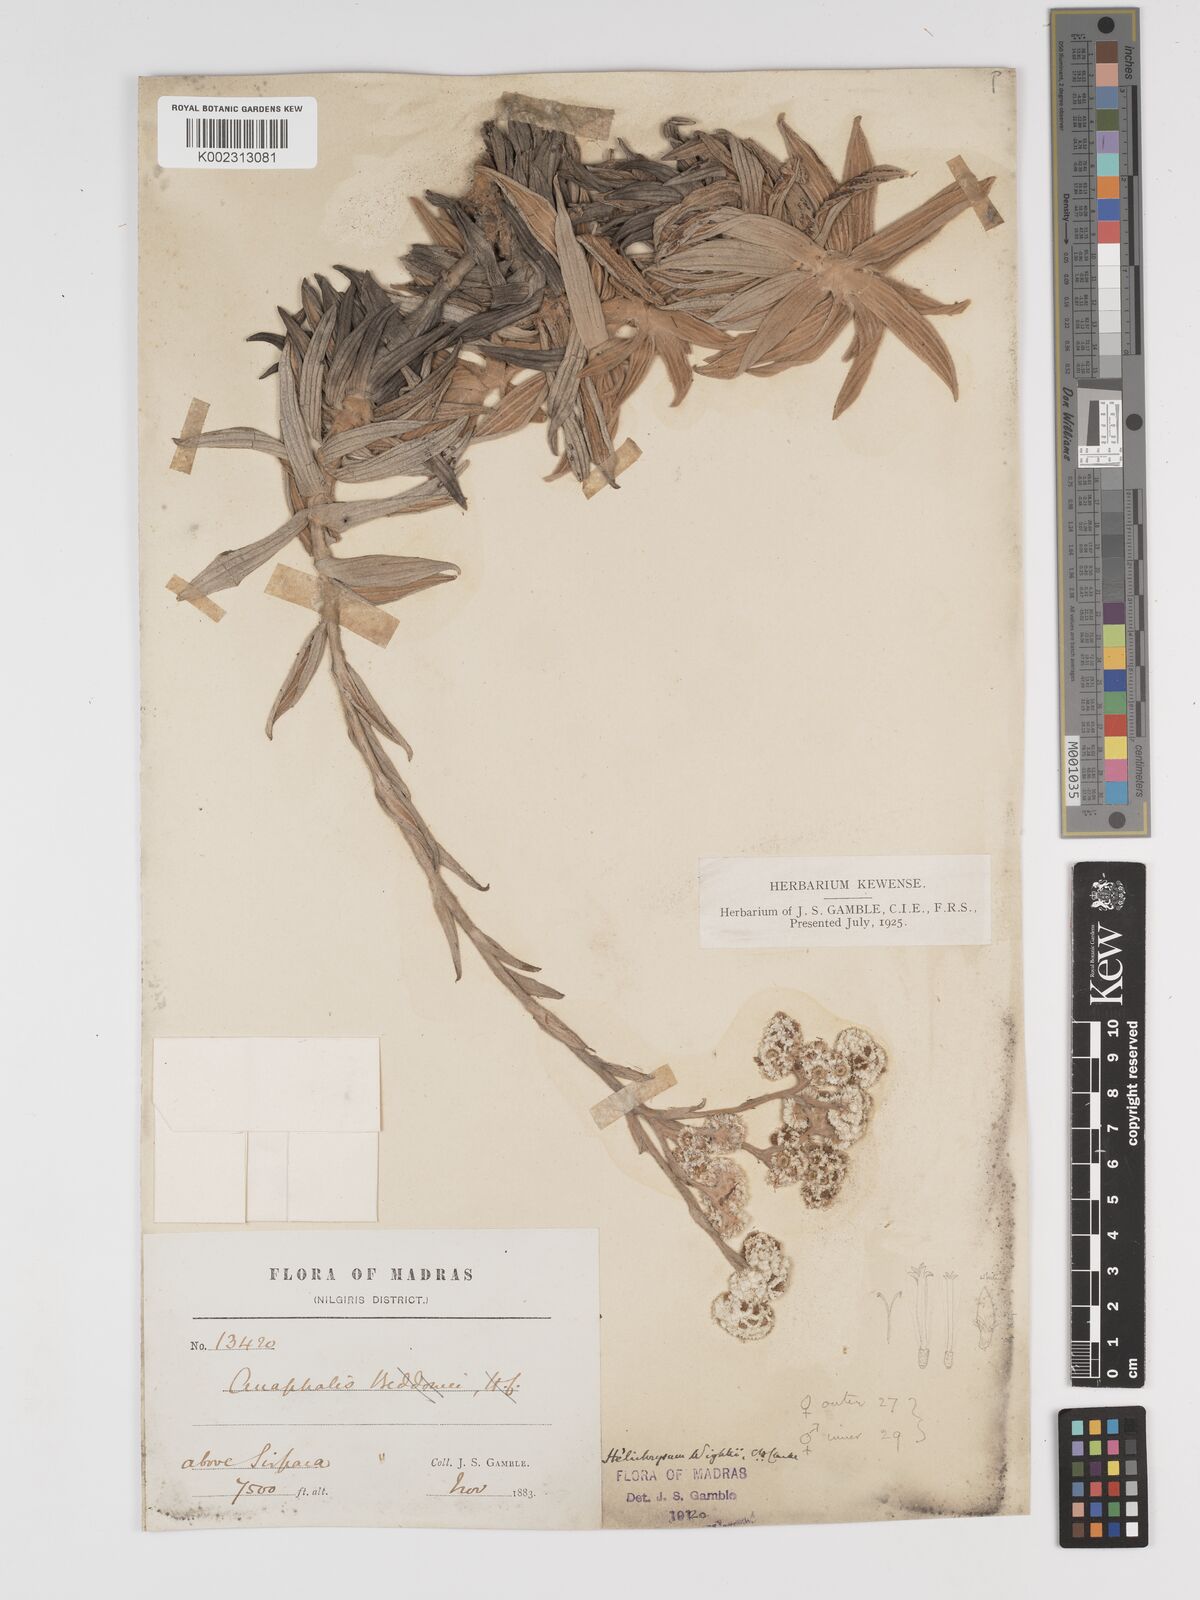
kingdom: Plantae
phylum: Tracheophyta
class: Magnoliopsida
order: Asterales
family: Asteraceae
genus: Helichrysum
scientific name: Helichrysum wightii
